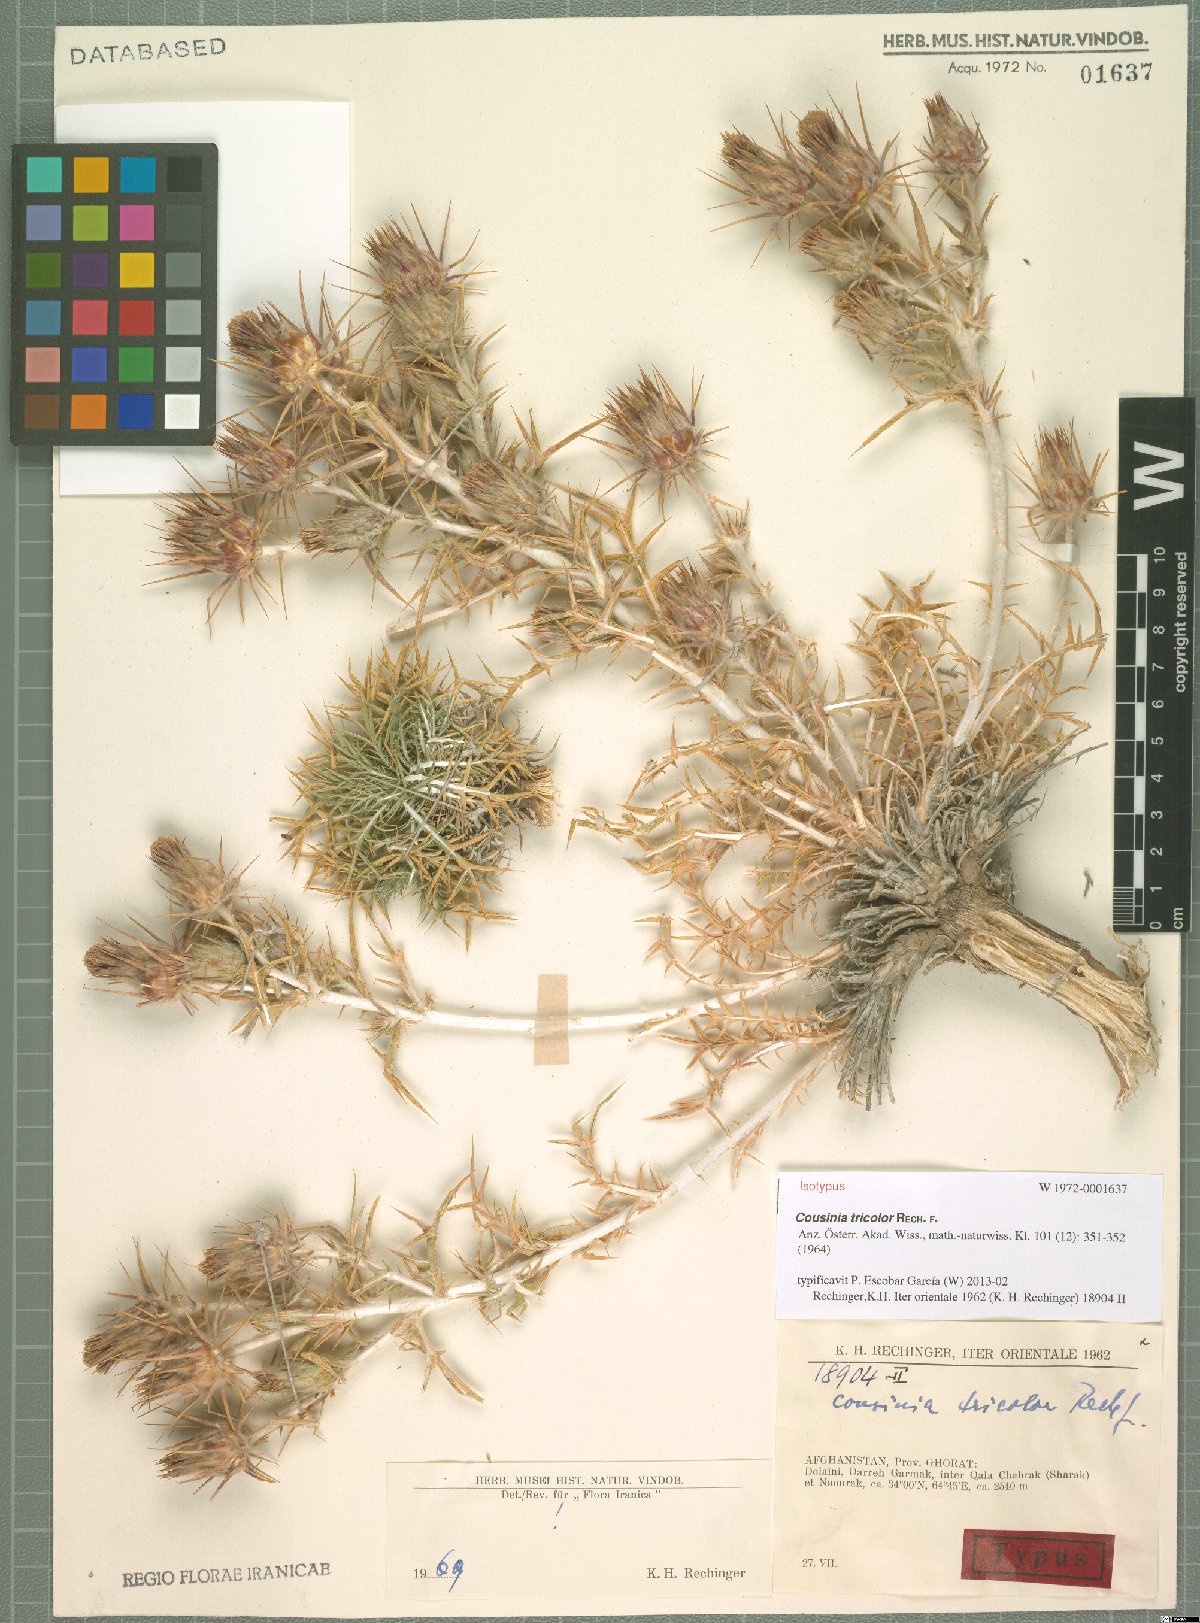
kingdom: Plantae
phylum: Tracheophyta
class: Magnoliopsida
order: Asterales
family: Asteraceae
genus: Cousinia
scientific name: Cousinia tricolor
